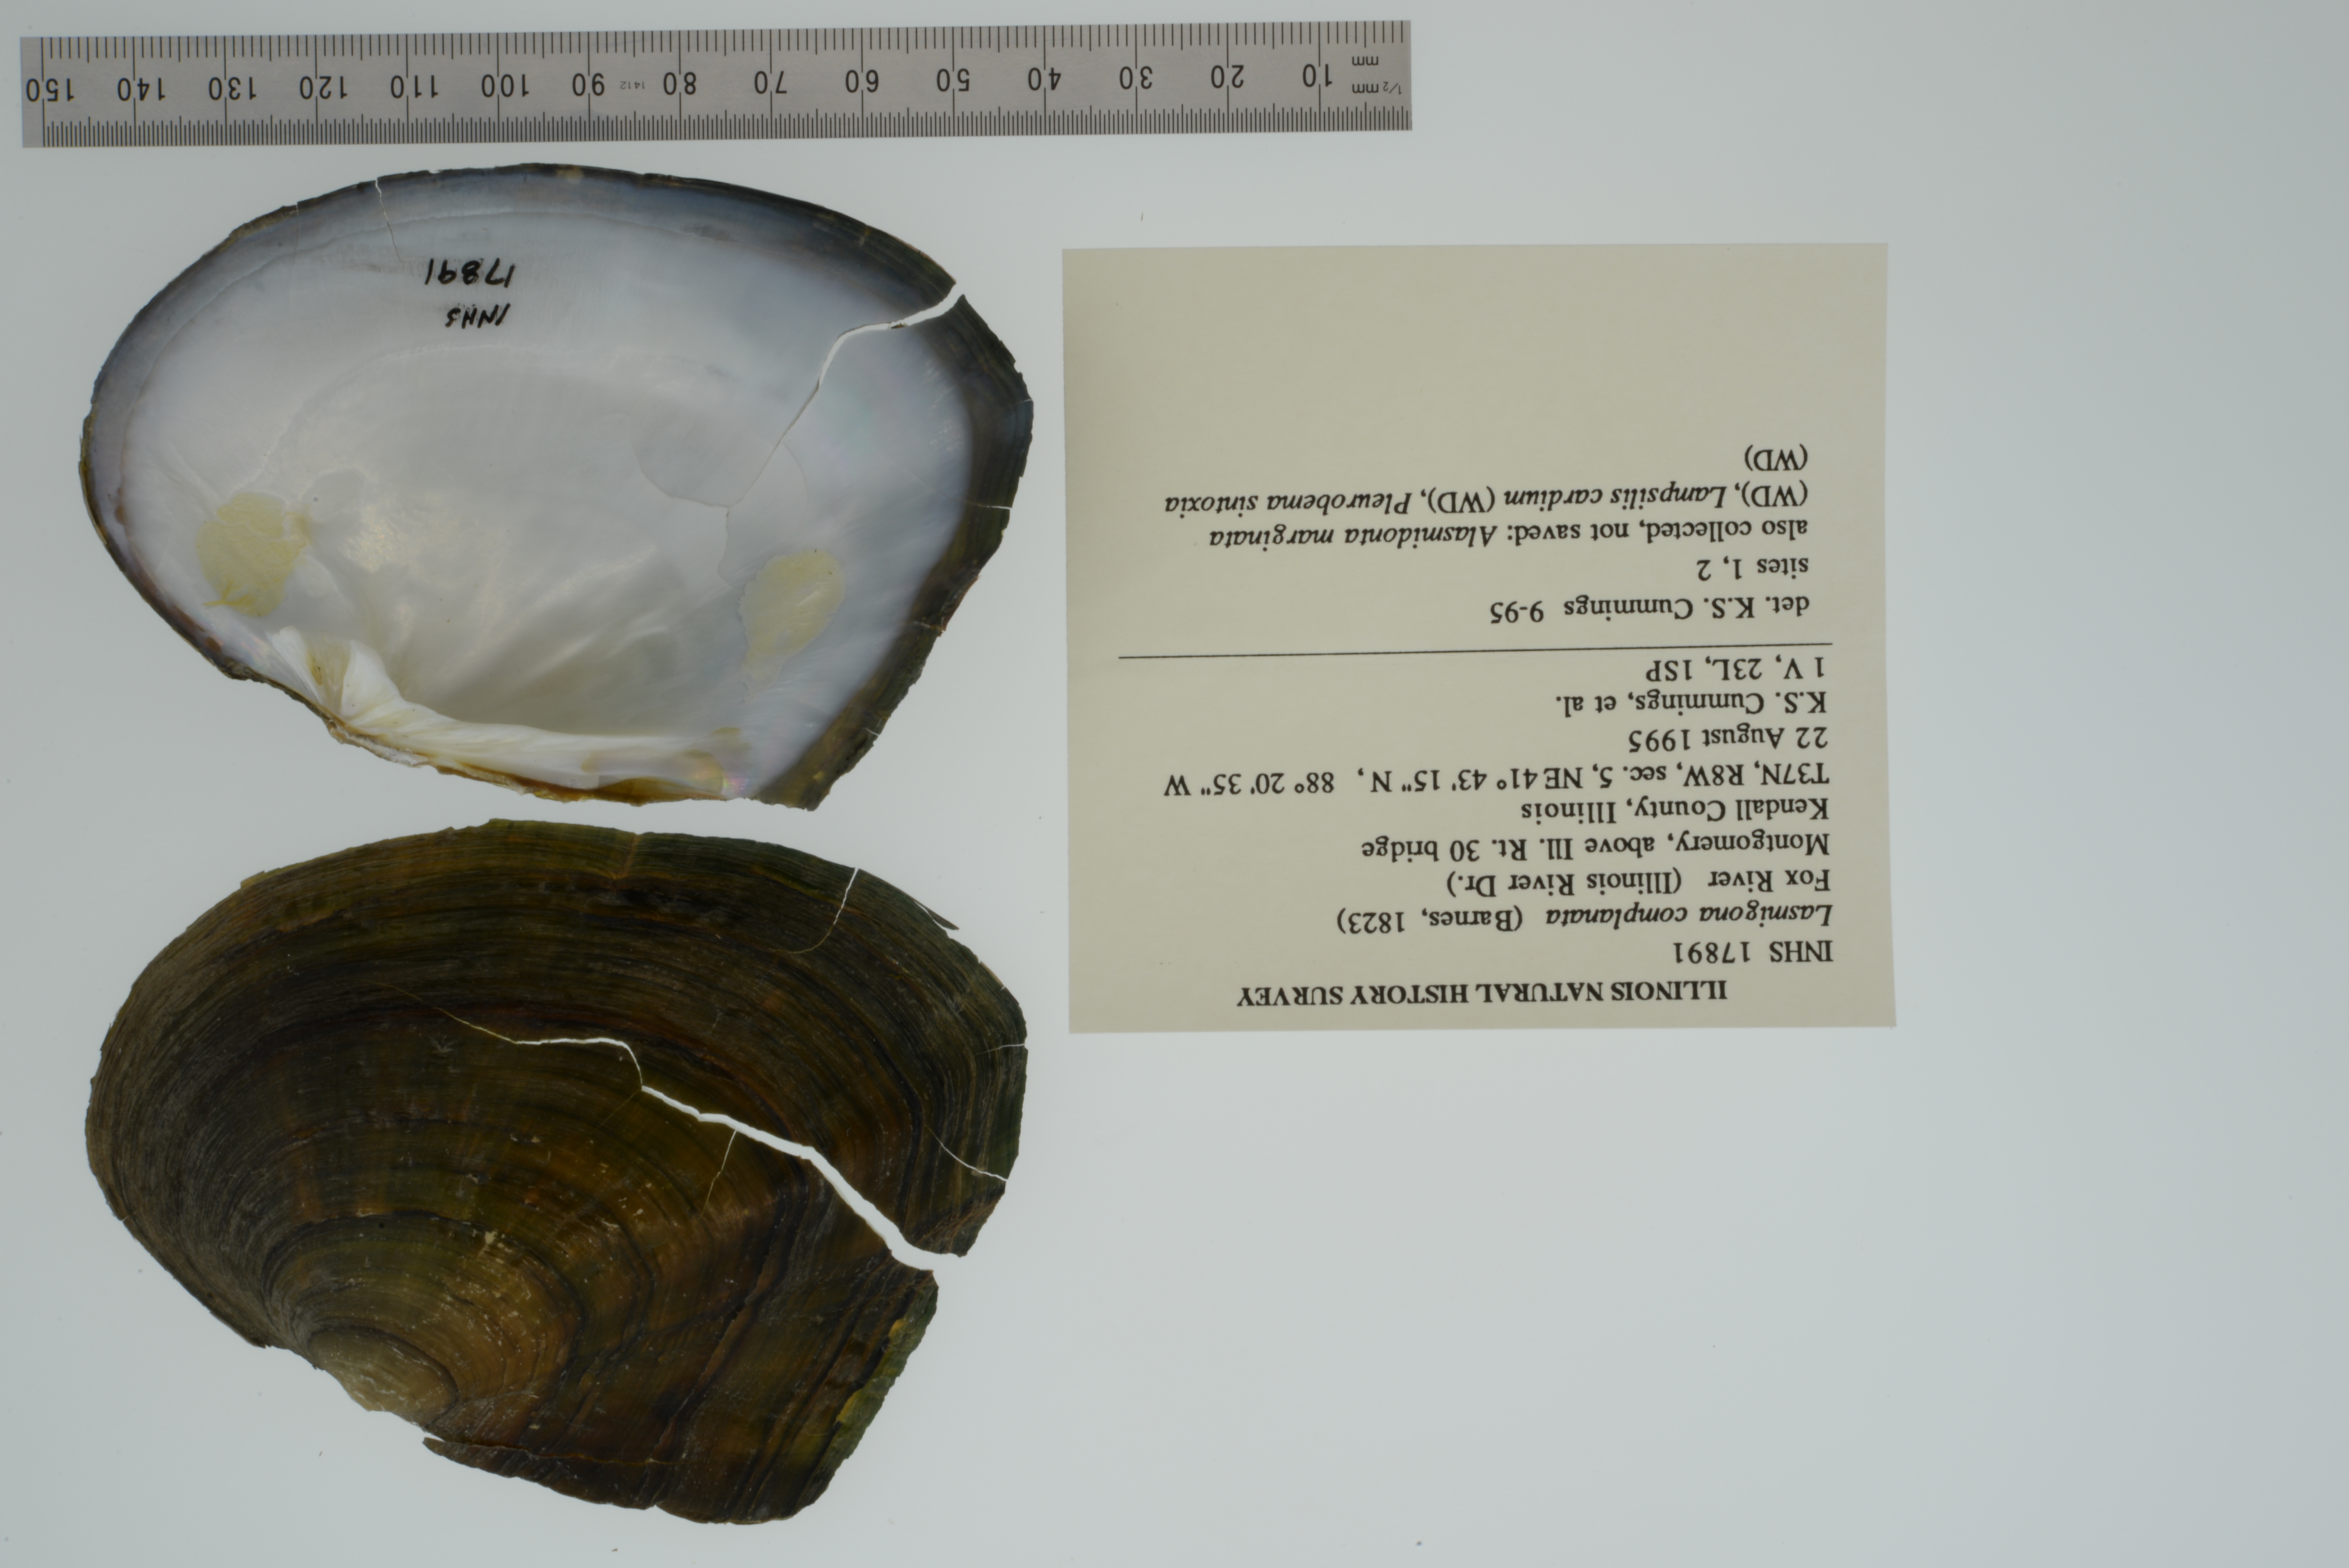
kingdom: Animalia
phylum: Mollusca
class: Bivalvia
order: Unionida
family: Unionidae
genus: Lasmigona
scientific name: Lasmigona complanata
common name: White heelsplitter
